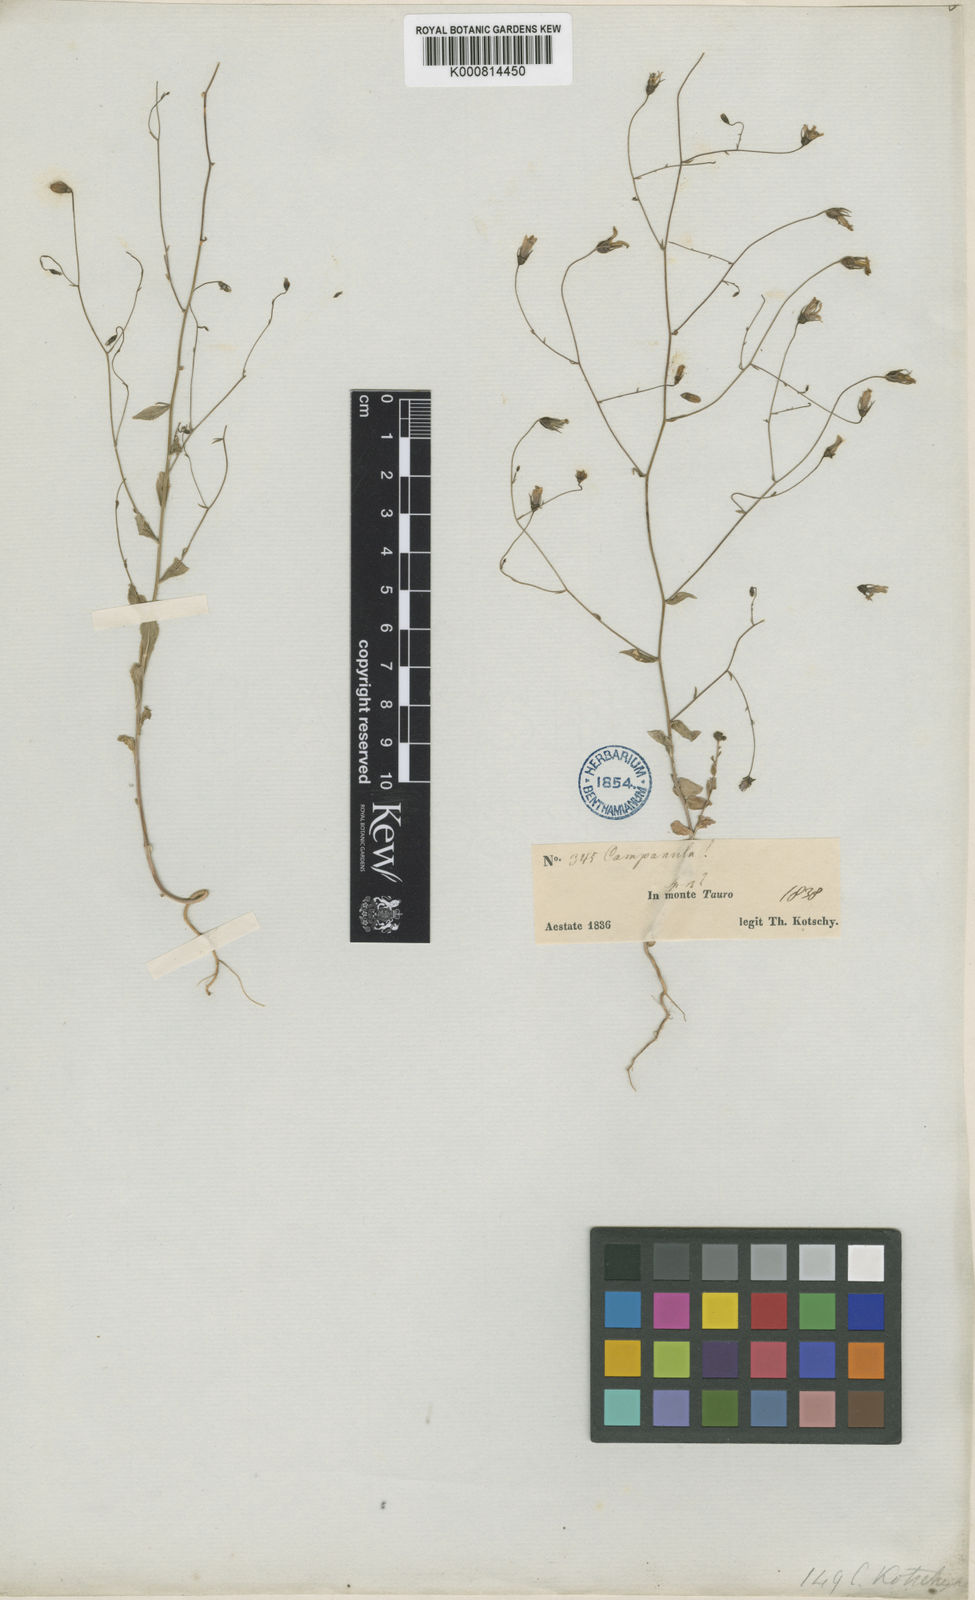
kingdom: Plantae
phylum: Tracheophyta
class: Magnoliopsida
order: Asterales
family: Campanulaceae
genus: Campanula
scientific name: Campanula kotschyana
